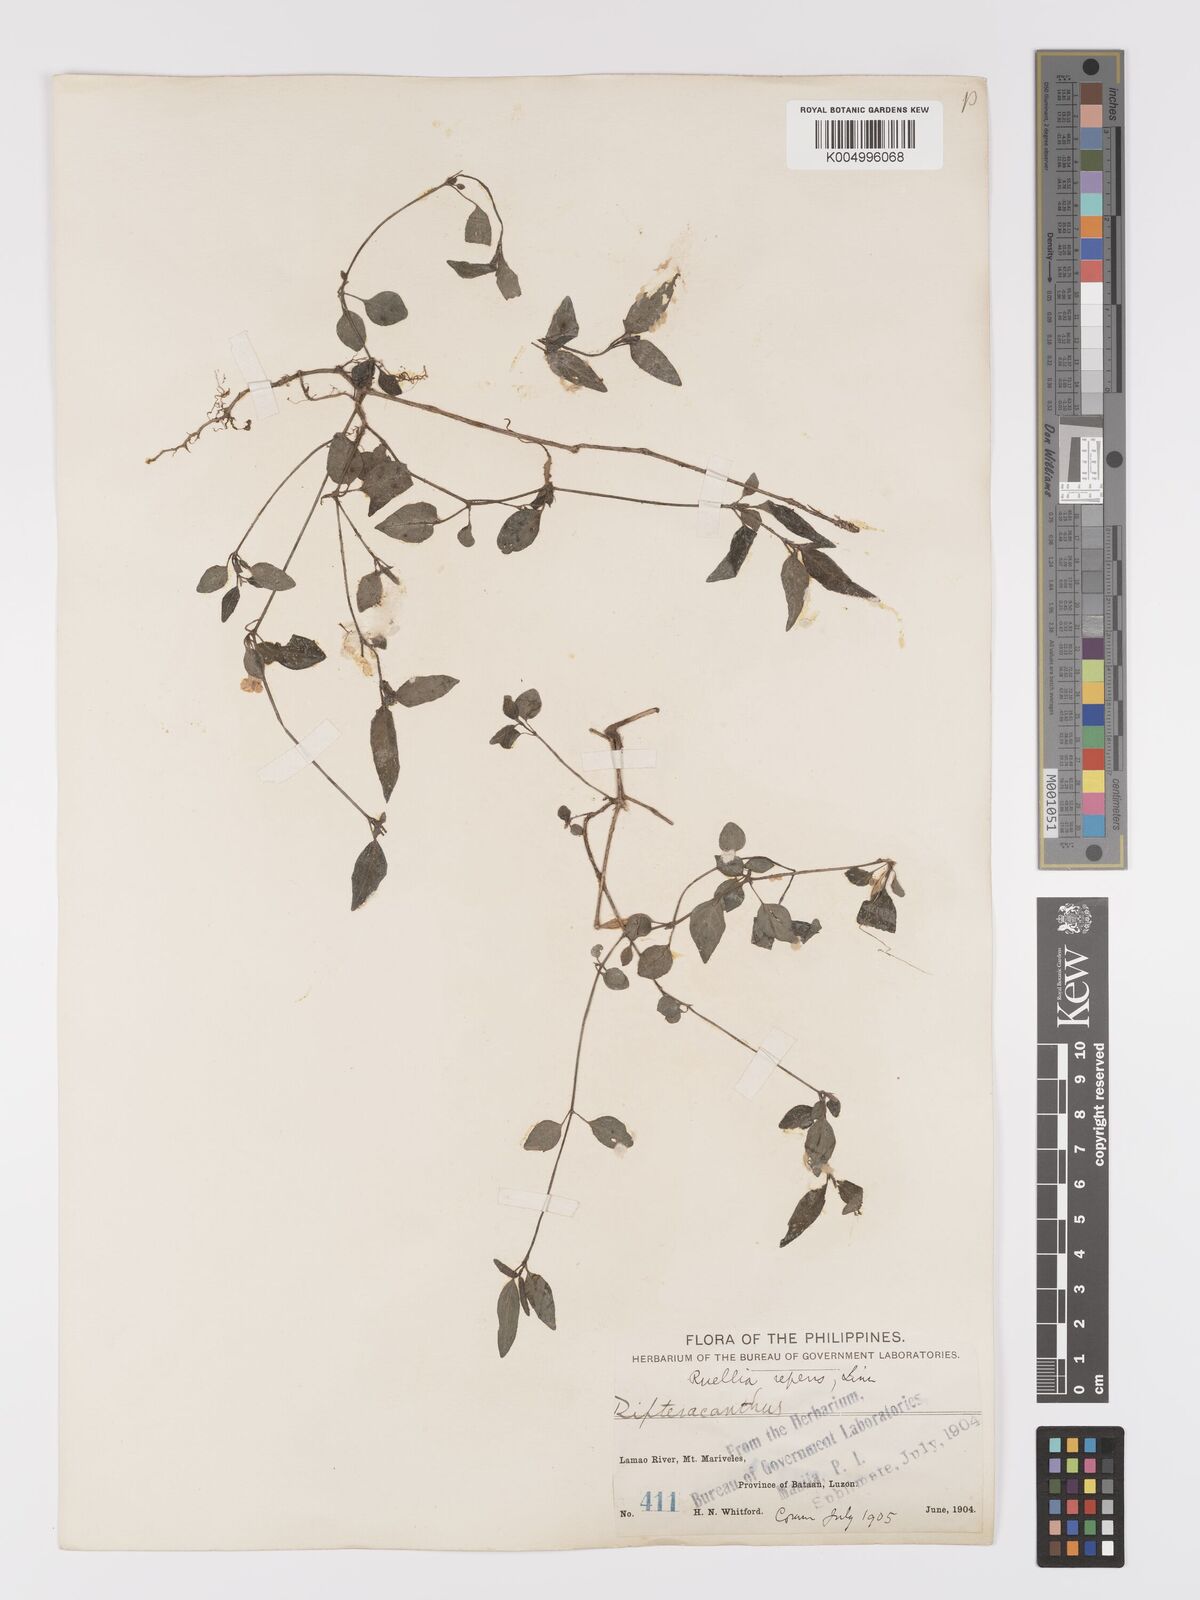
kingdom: Plantae
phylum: Tracheophyta
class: Magnoliopsida
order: Lamiales
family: Acanthaceae
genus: Ruellia
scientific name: Ruellia
